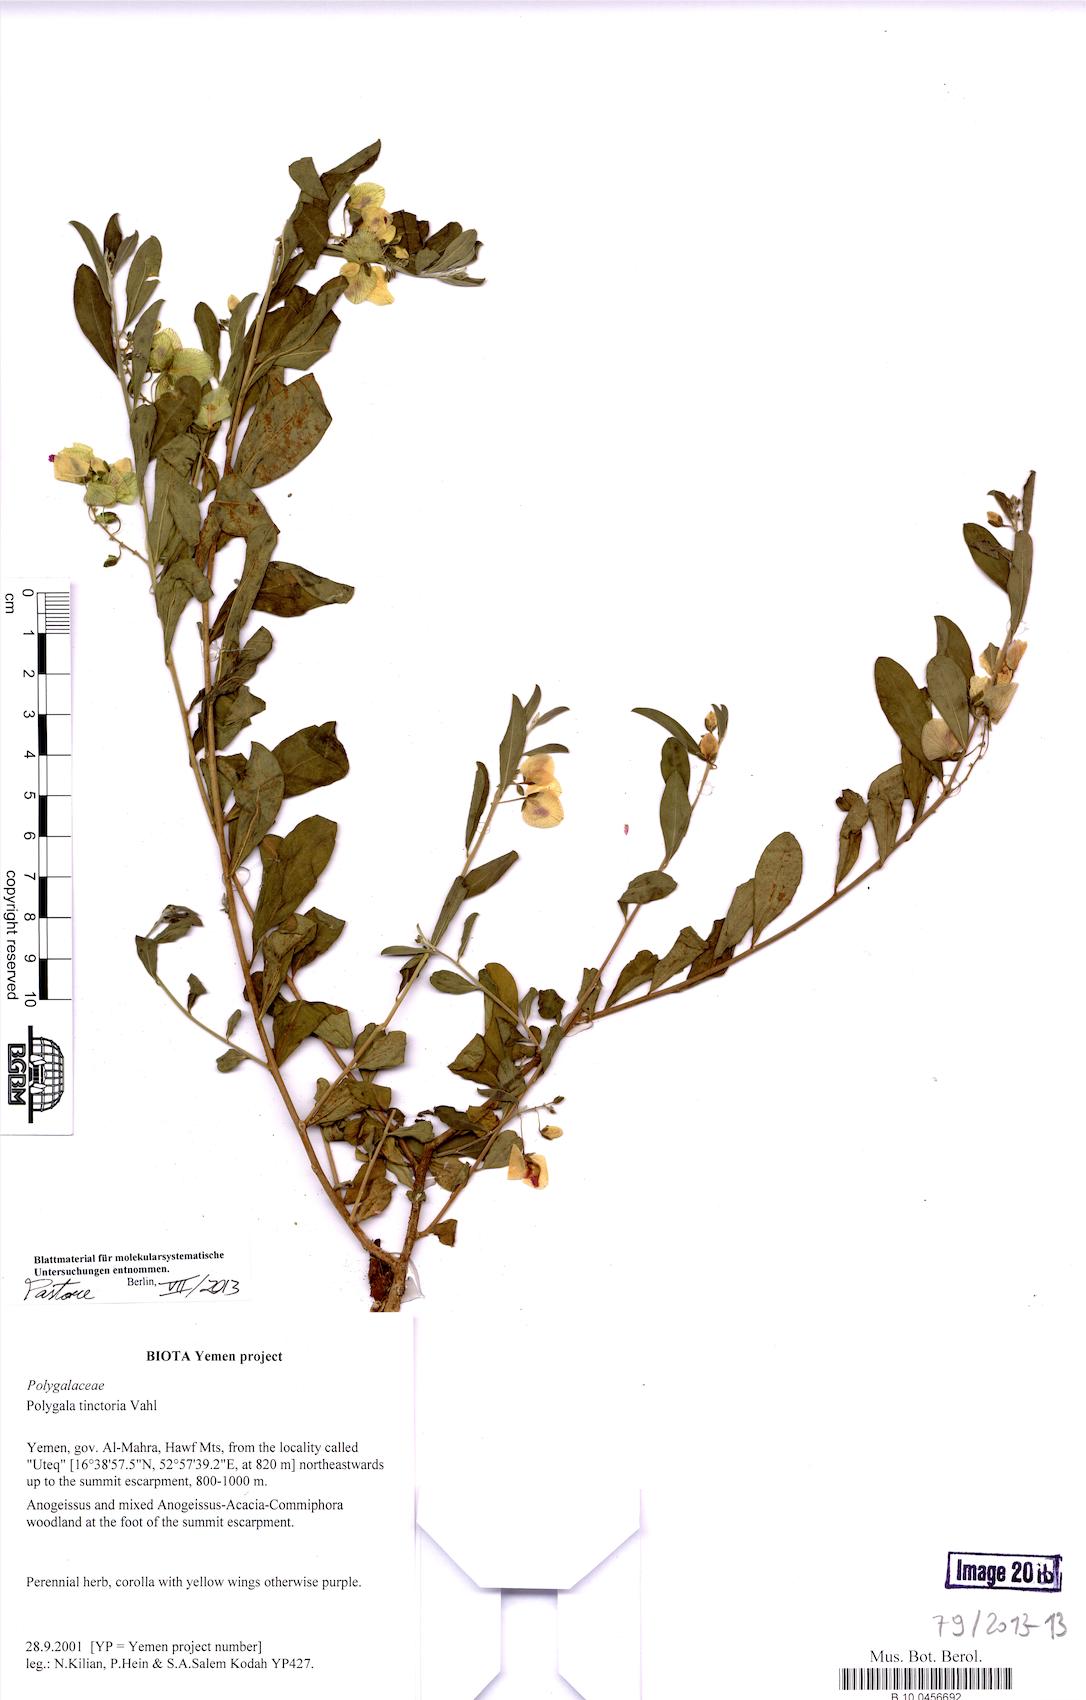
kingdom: Plantae
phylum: Tracheophyta
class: Magnoliopsida
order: Fabales
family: Polygalaceae
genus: Polygala
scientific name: Polygala tinctoria
